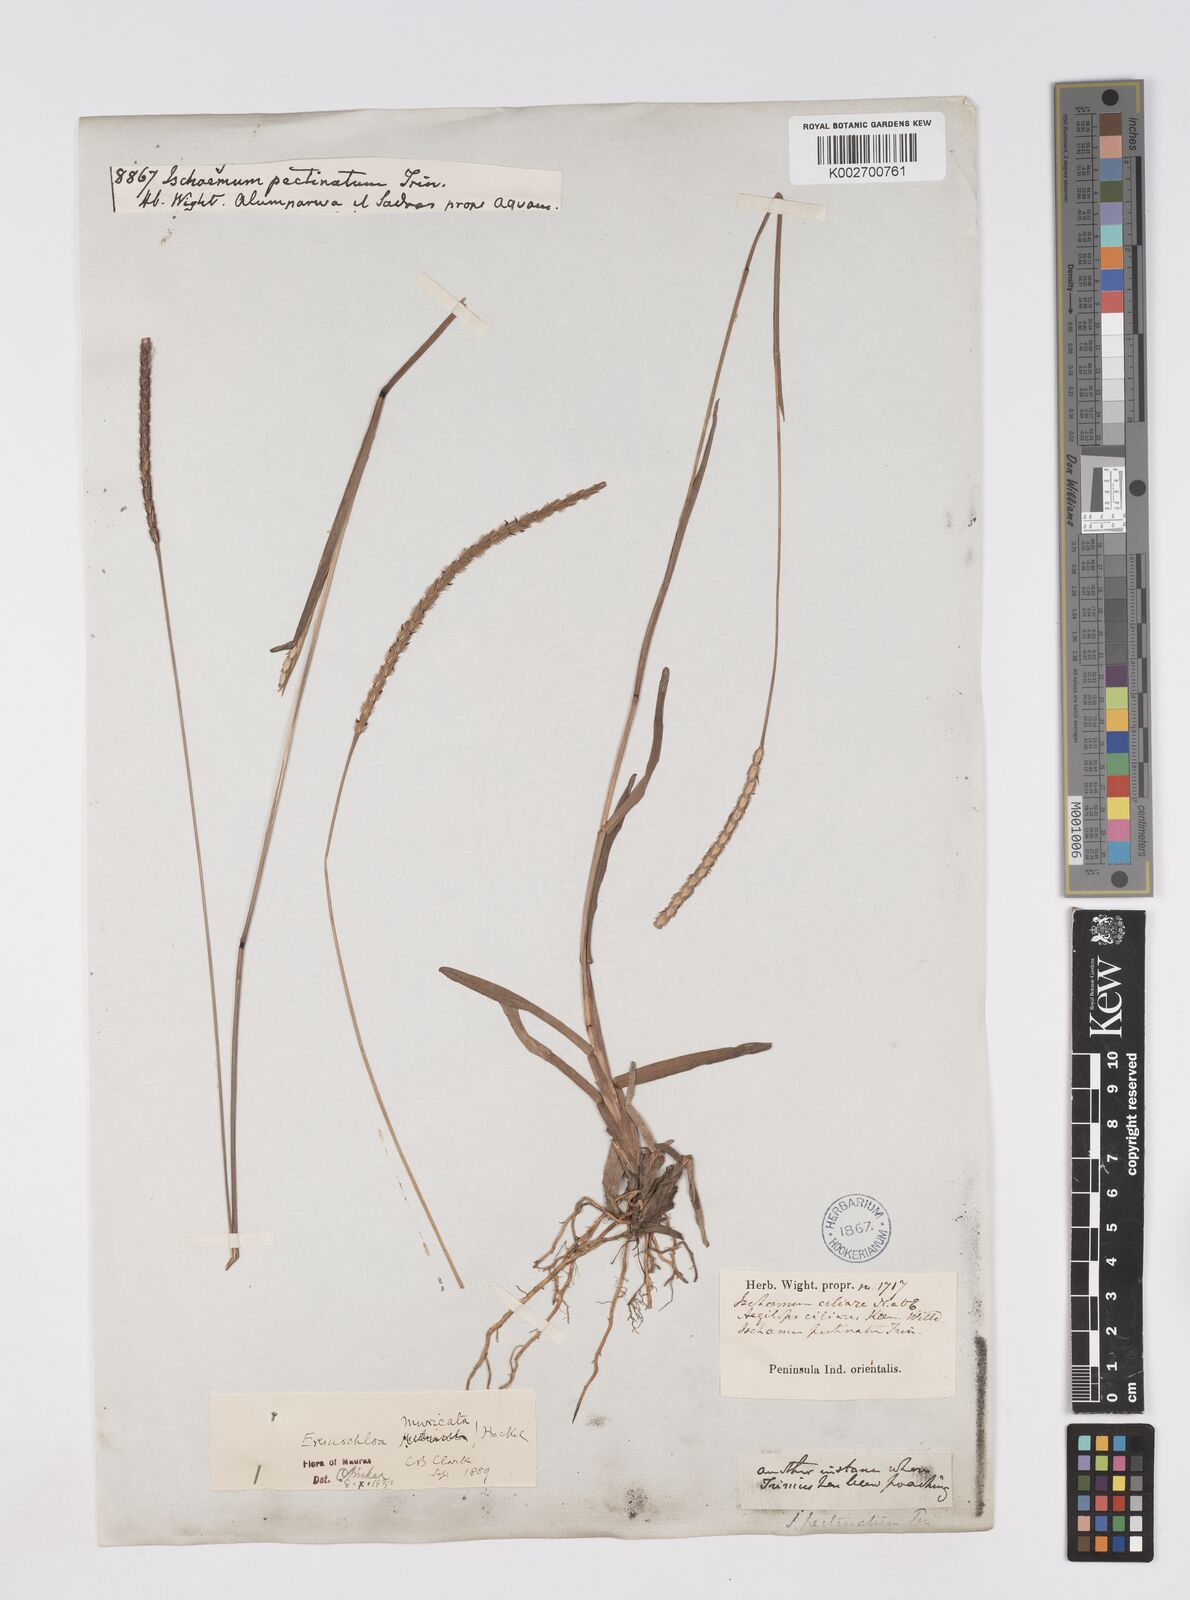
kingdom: Plantae
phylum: Tracheophyta
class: Liliopsida
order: Poales
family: Poaceae
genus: Eremochloa
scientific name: Eremochloa muricata
